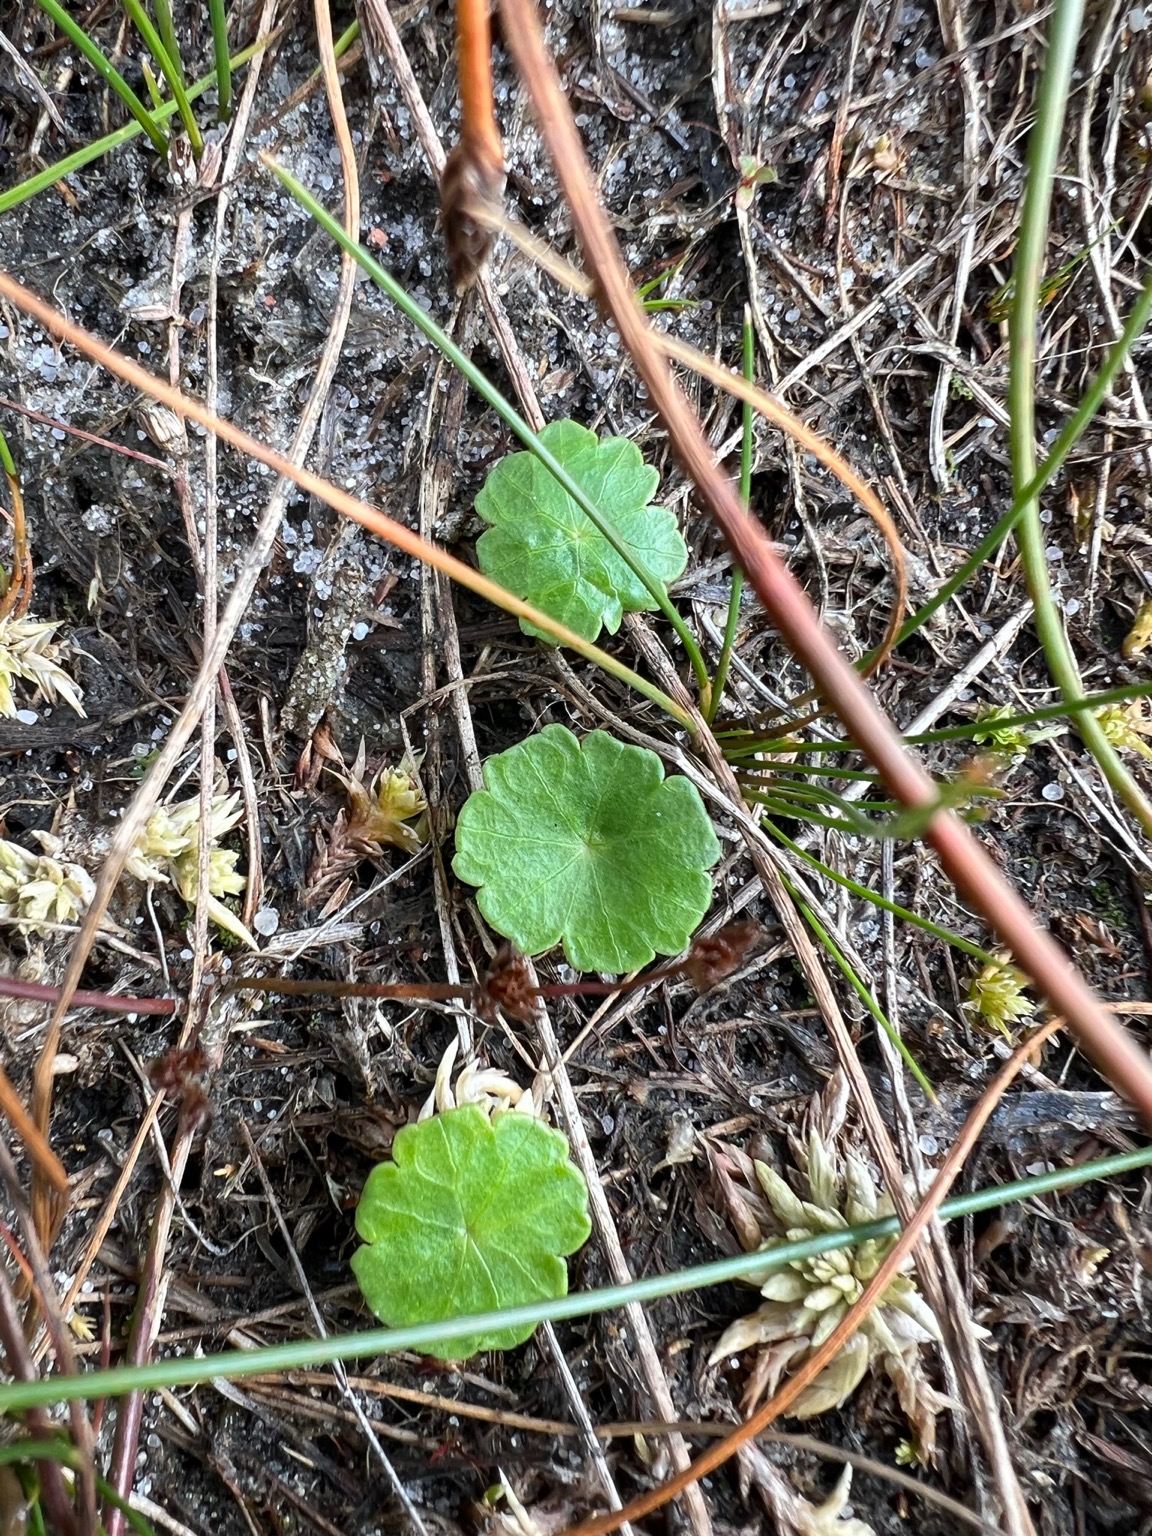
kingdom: Plantae
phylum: Tracheophyta
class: Magnoliopsida
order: Apiales
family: Araliaceae
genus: Hydrocotyle
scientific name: Hydrocotyle vulgaris
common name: Vandnavle
